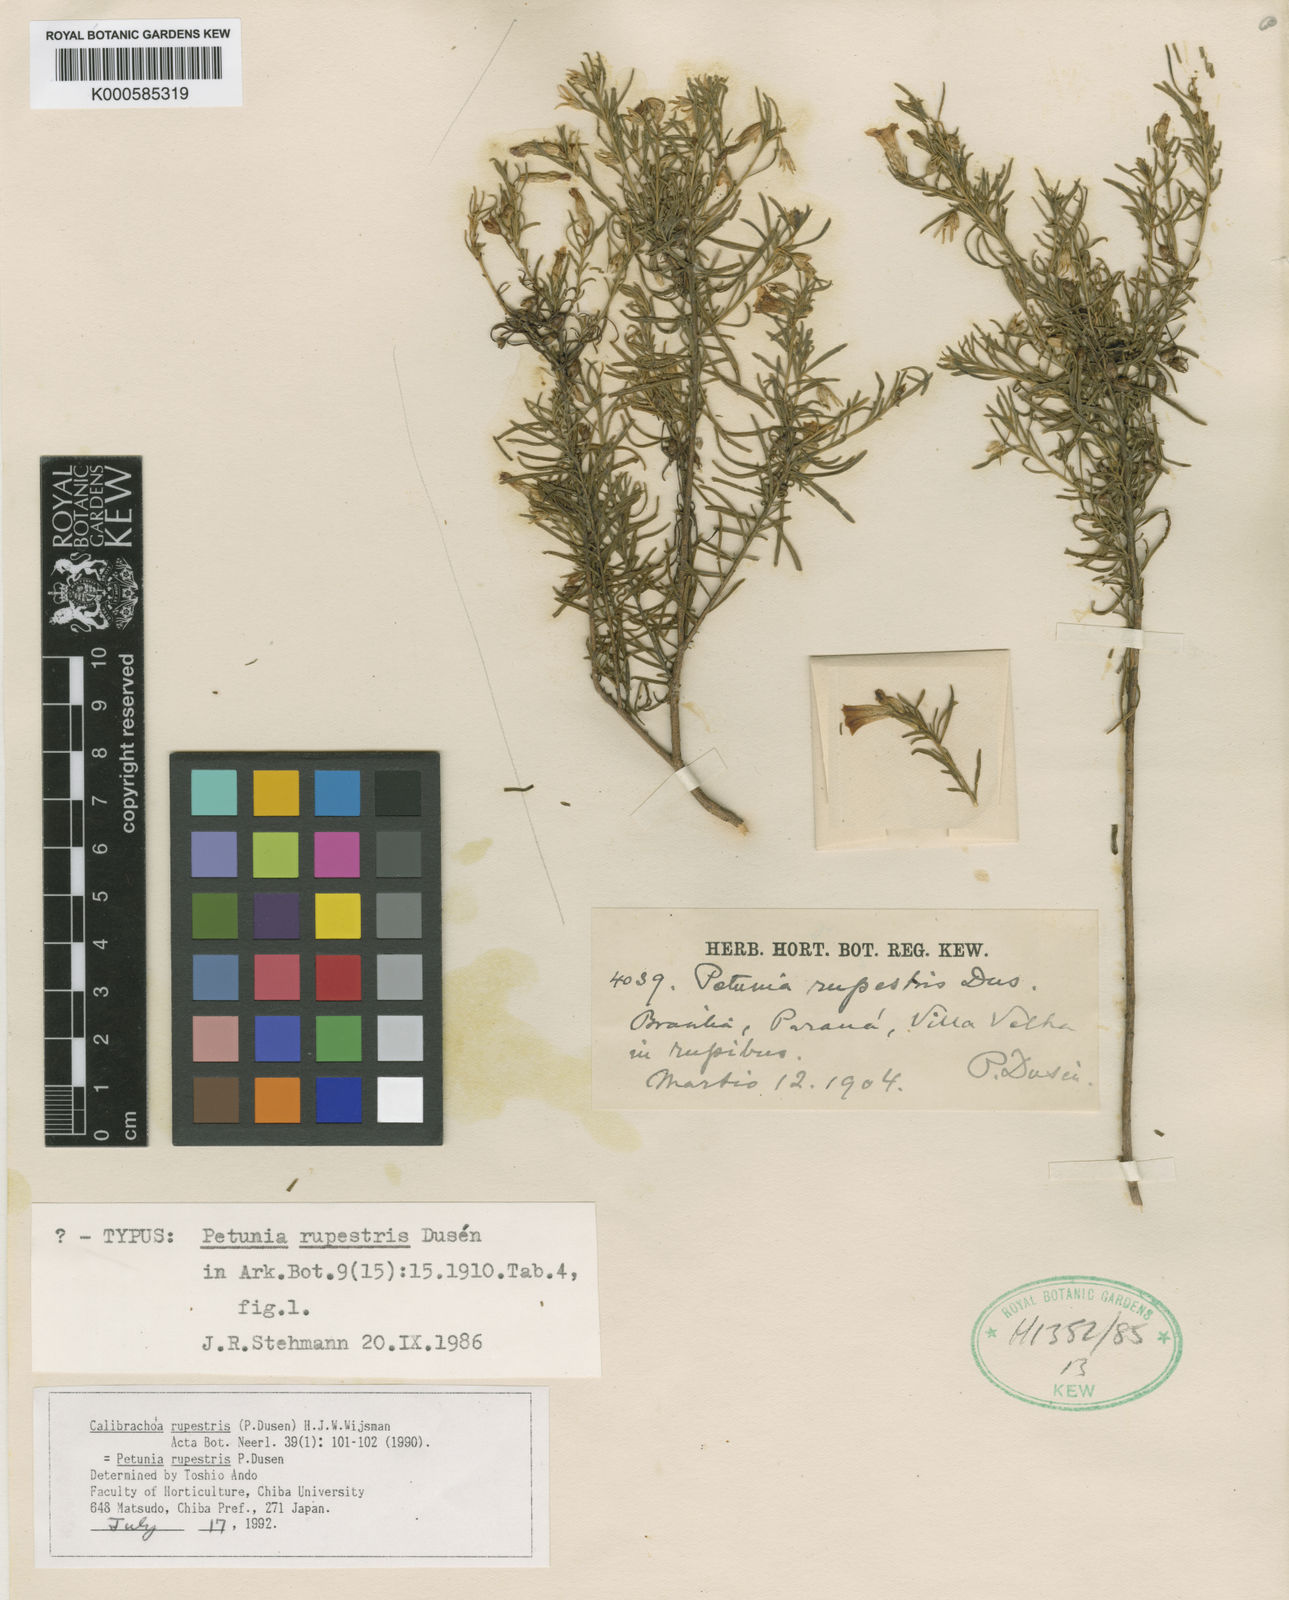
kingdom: Plantae
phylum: Tracheophyta
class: Magnoliopsida
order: Solanales
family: Solanaceae
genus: Calibrachoa
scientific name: Calibrachoa
